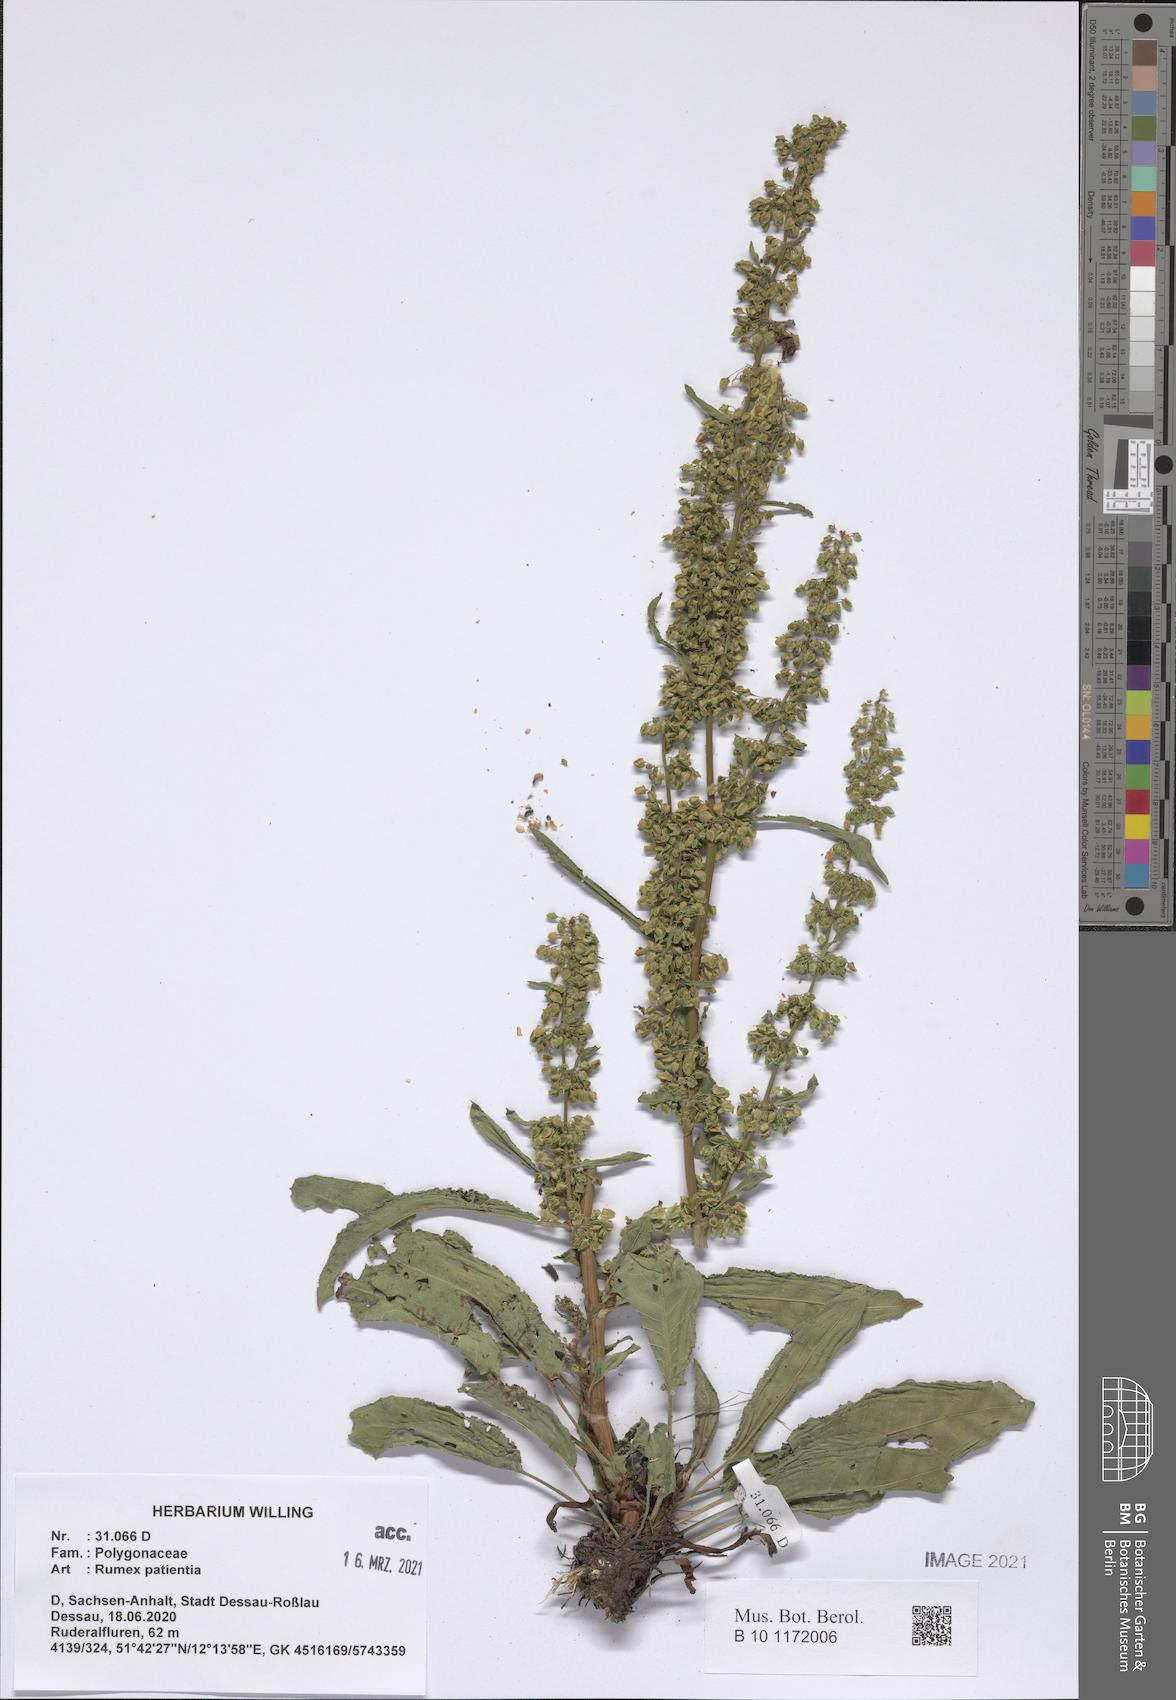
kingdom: Plantae
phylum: Tracheophyta
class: Magnoliopsida
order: Caryophyllales
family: Polygonaceae
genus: Rumex
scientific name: Rumex patientia
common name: Patience dock
